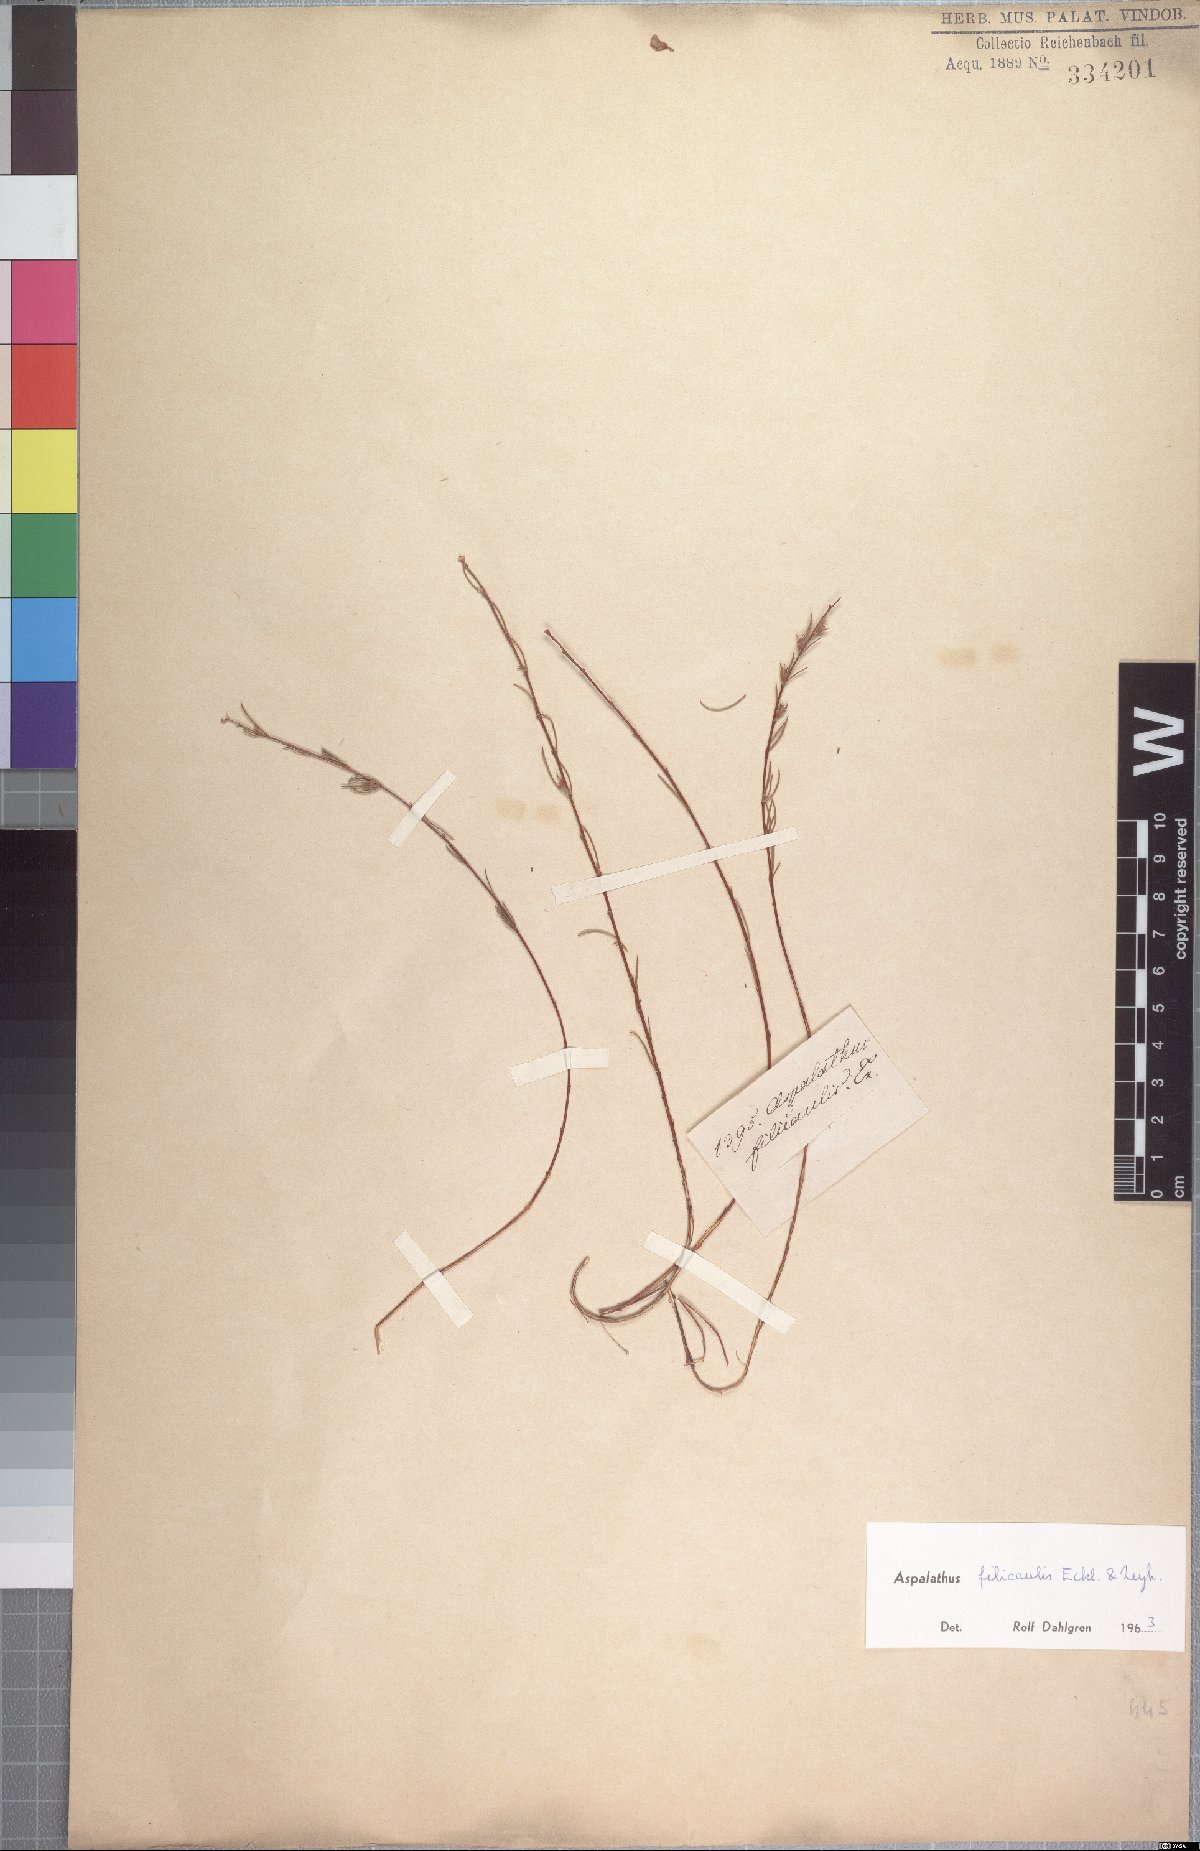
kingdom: Plantae
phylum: Tracheophyta
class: Magnoliopsida
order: Fabales
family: Fabaceae
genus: Aspalathus
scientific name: Aspalathus filicaulis
